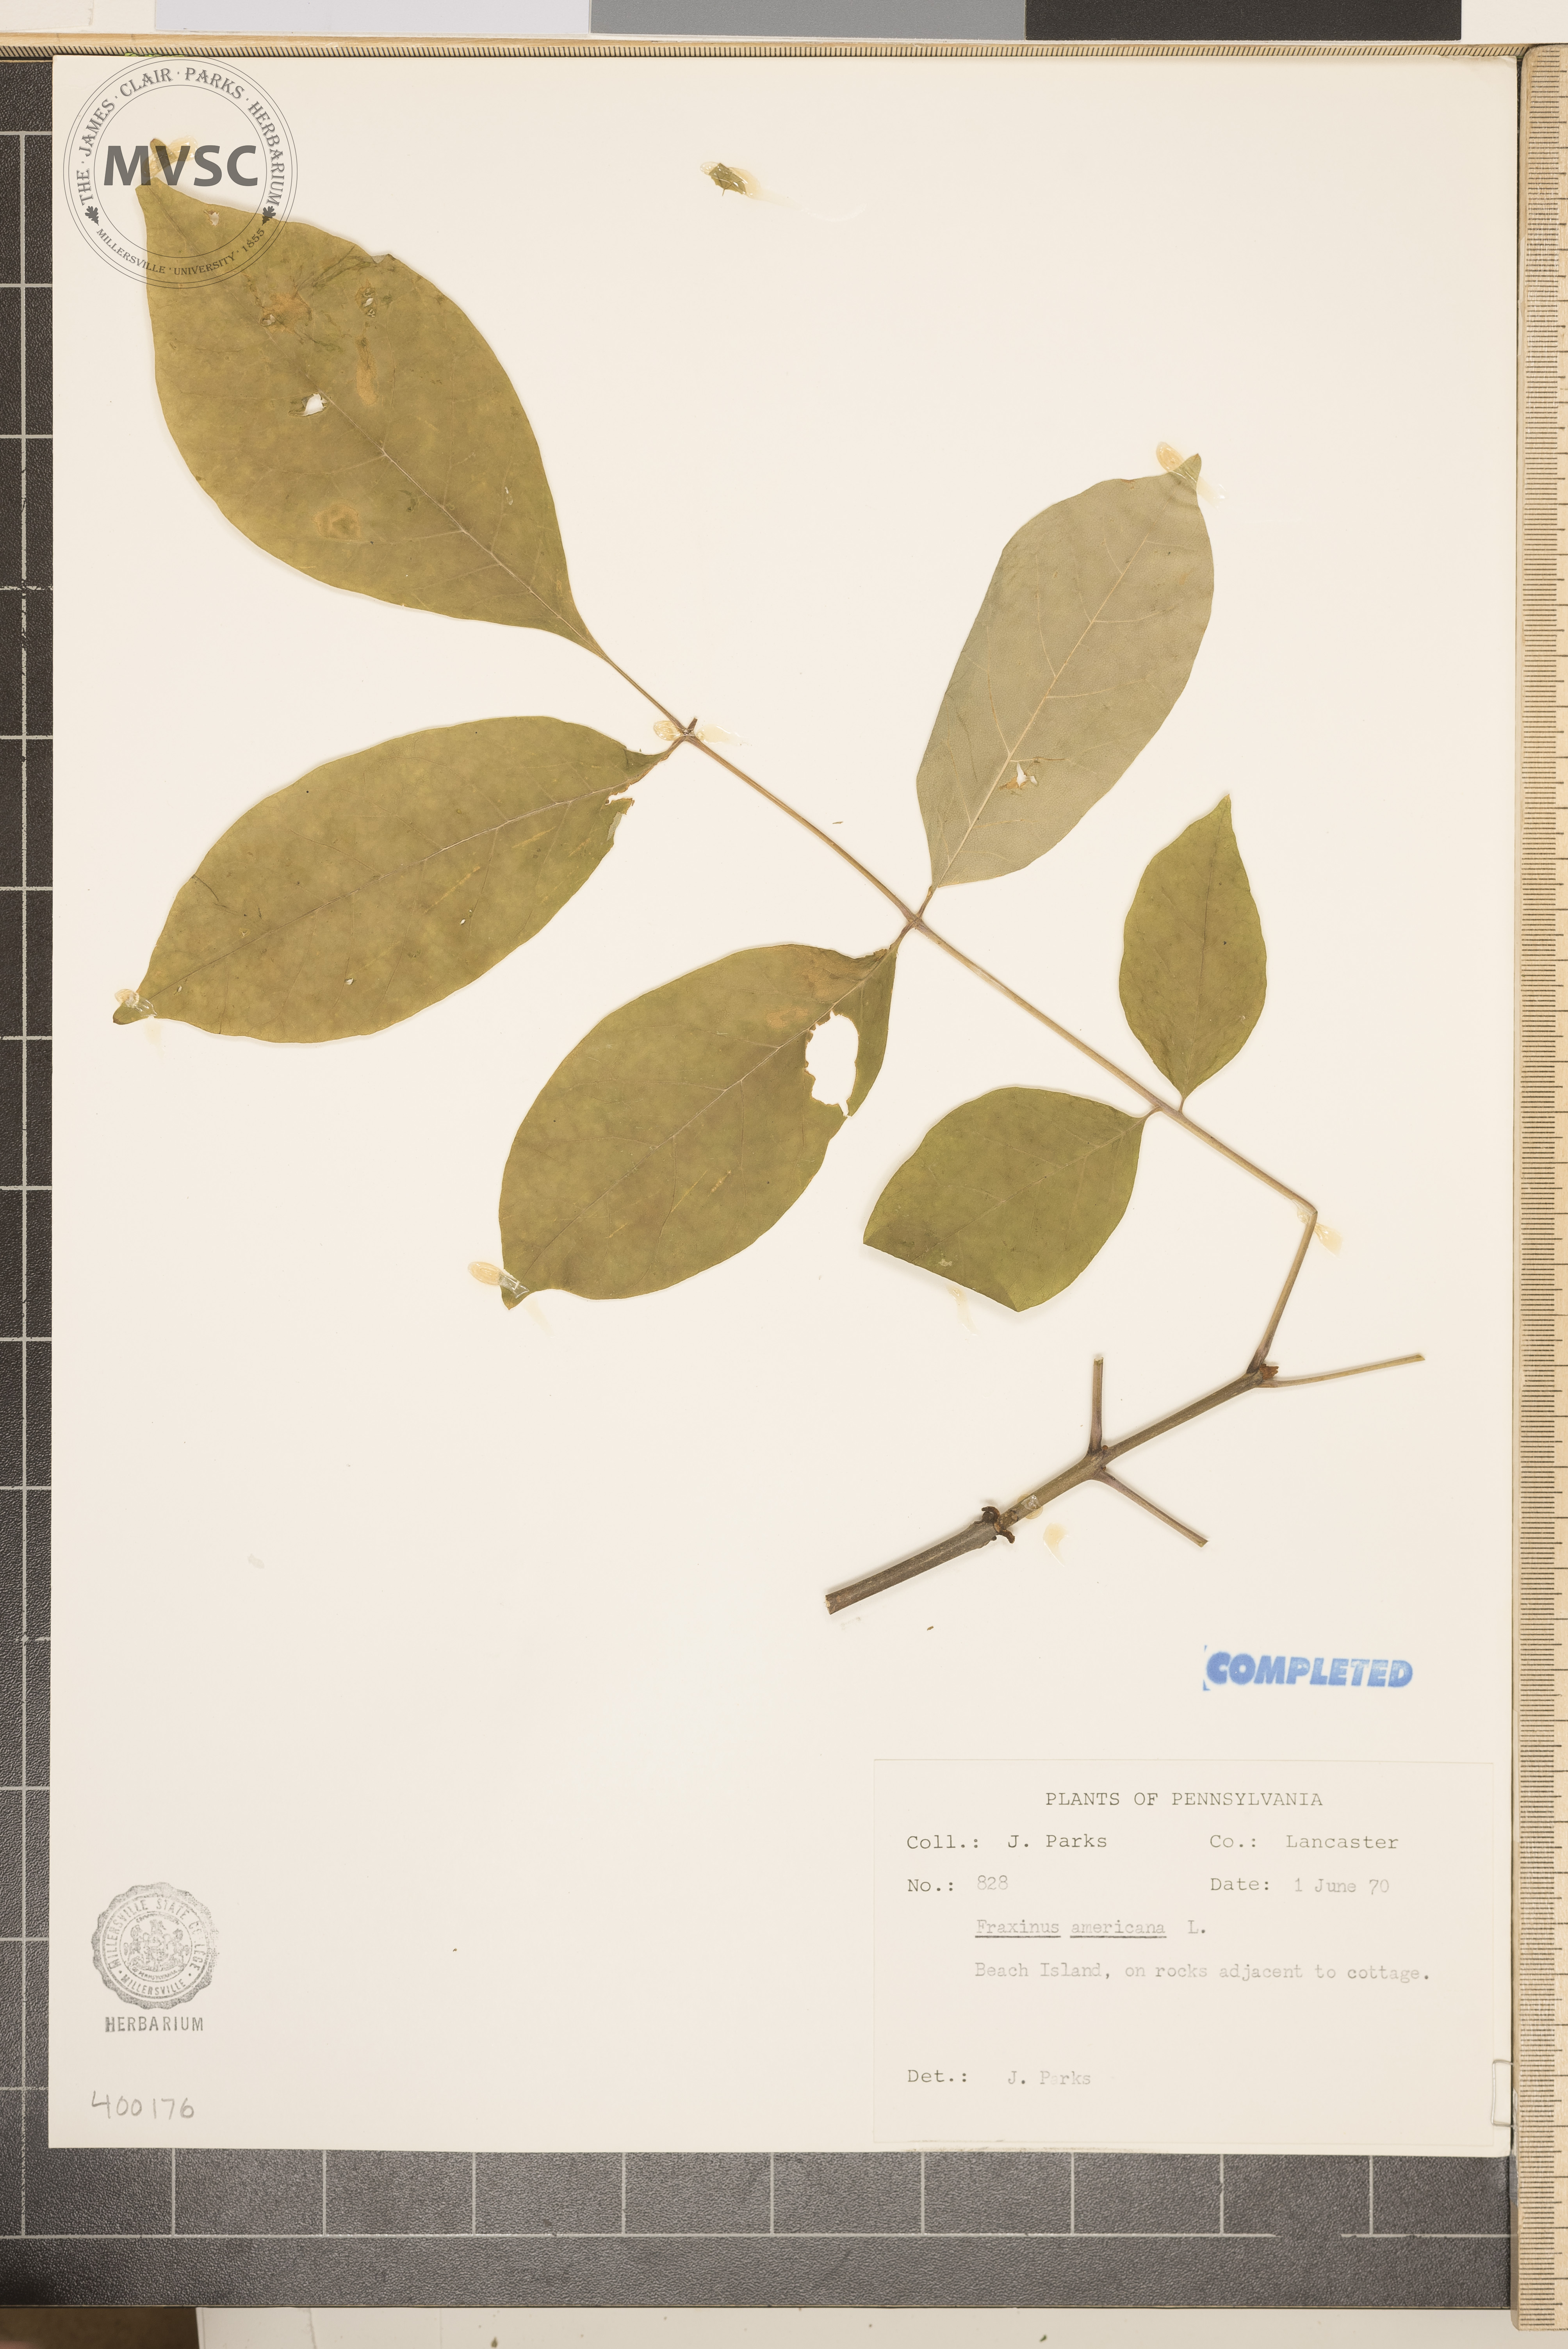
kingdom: Plantae
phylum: Tracheophyta
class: Magnoliopsida
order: Lamiales
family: Oleaceae
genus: Fraxinus
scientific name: Fraxinus americana
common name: ash
